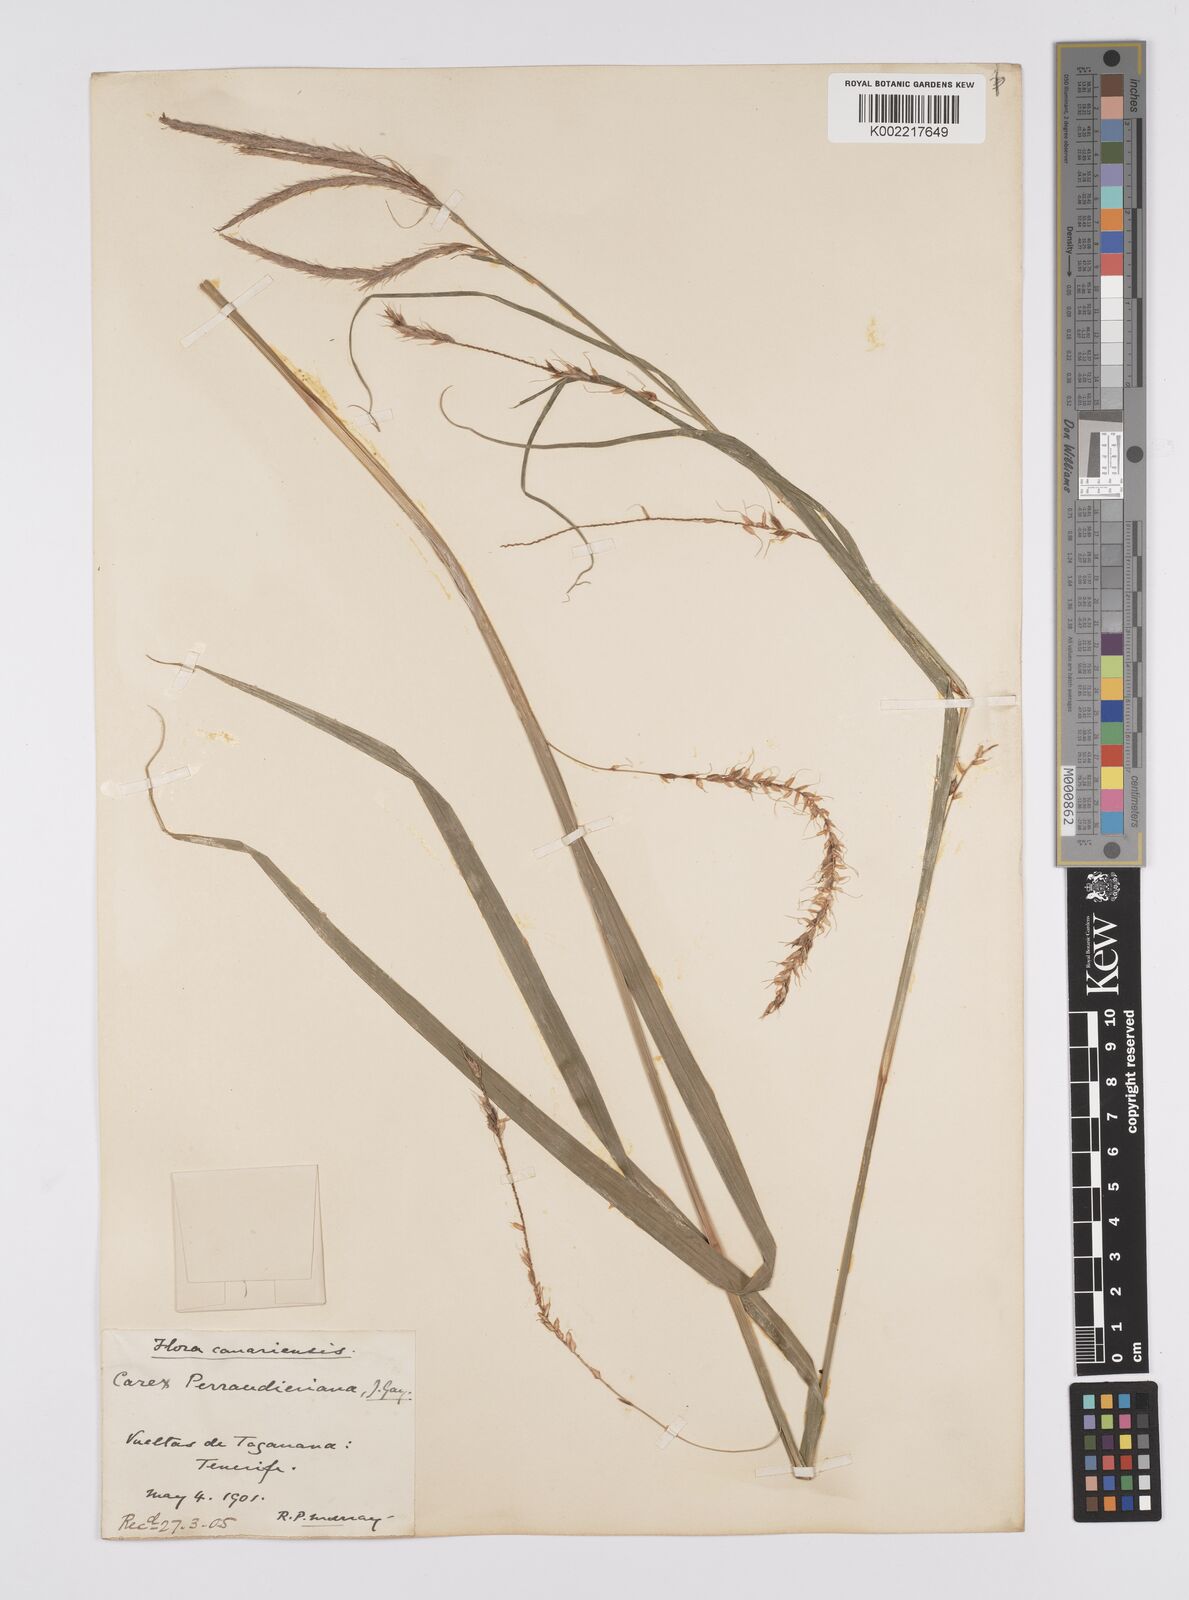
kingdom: Plantae
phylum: Tracheophyta
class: Liliopsida
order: Poales
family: Cyperaceae
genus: Carex
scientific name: Carex perraudieriana
